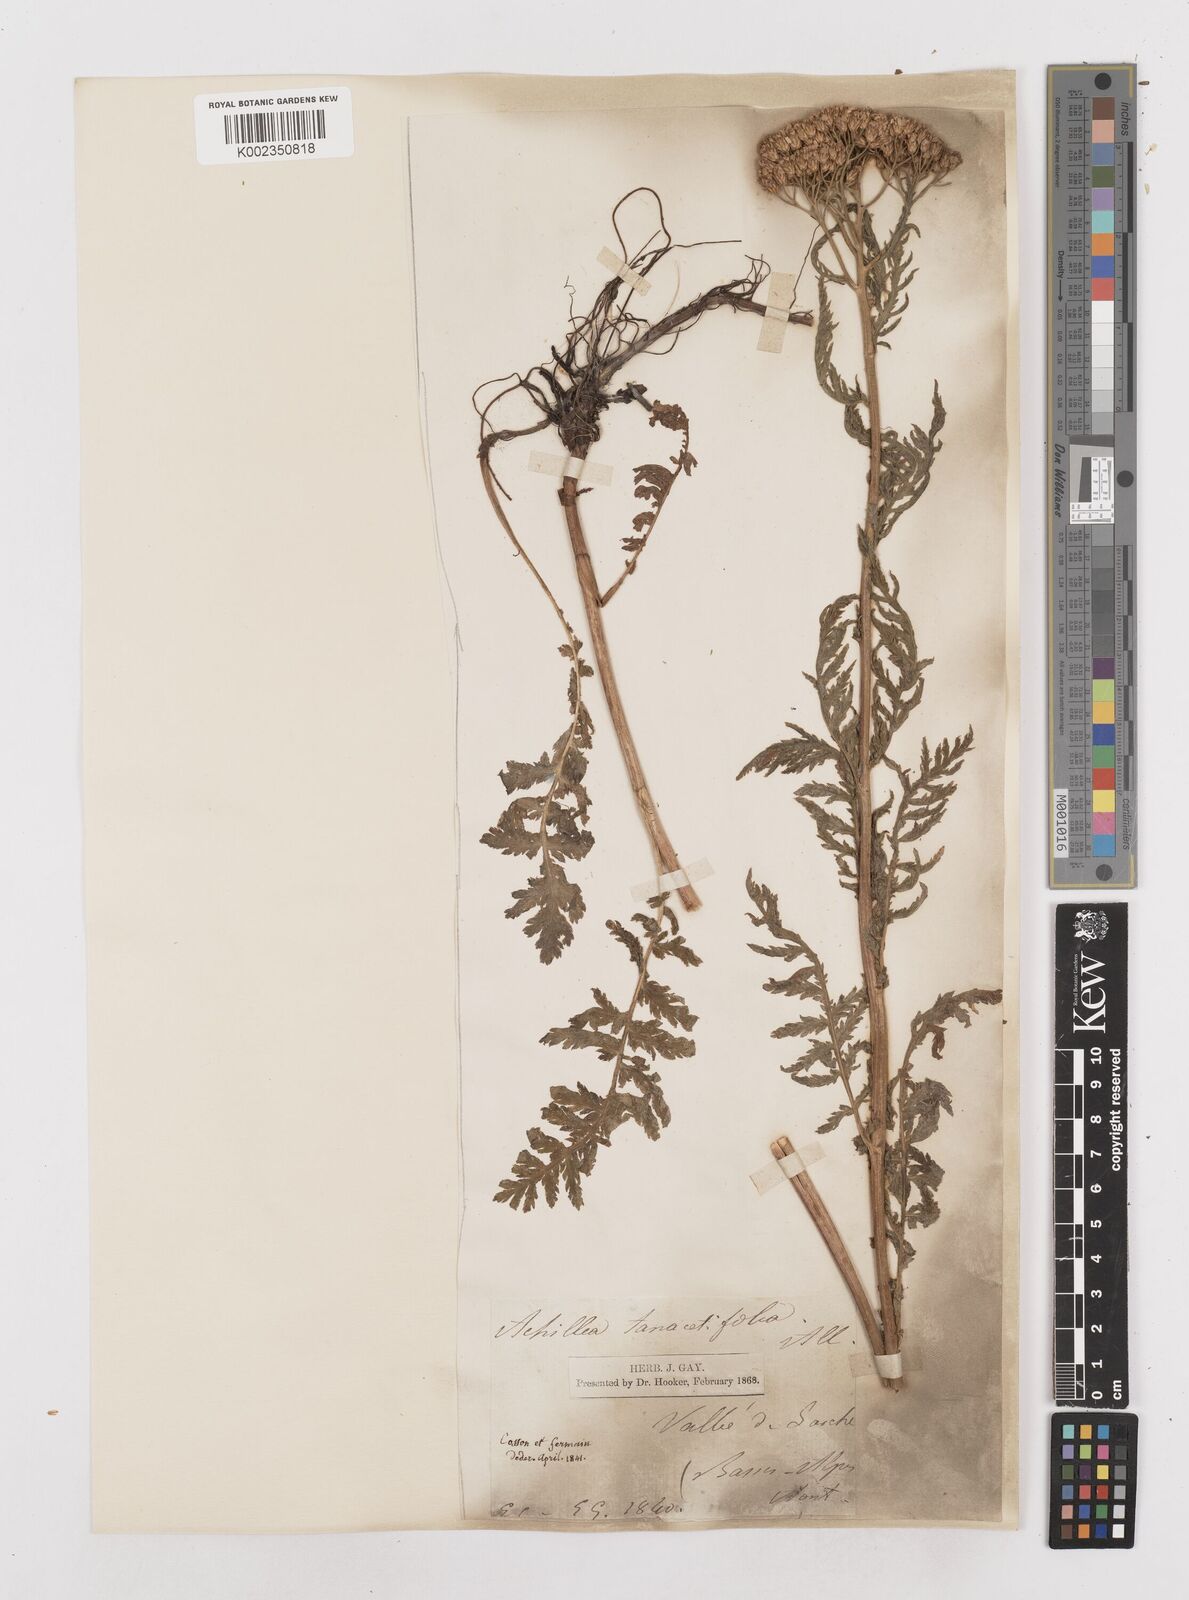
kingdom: Plantae
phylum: Tracheophyta
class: Magnoliopsida
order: Asterales
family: Asteraceae
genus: Achillea
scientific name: Achillea distans
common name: Tall yarrow
